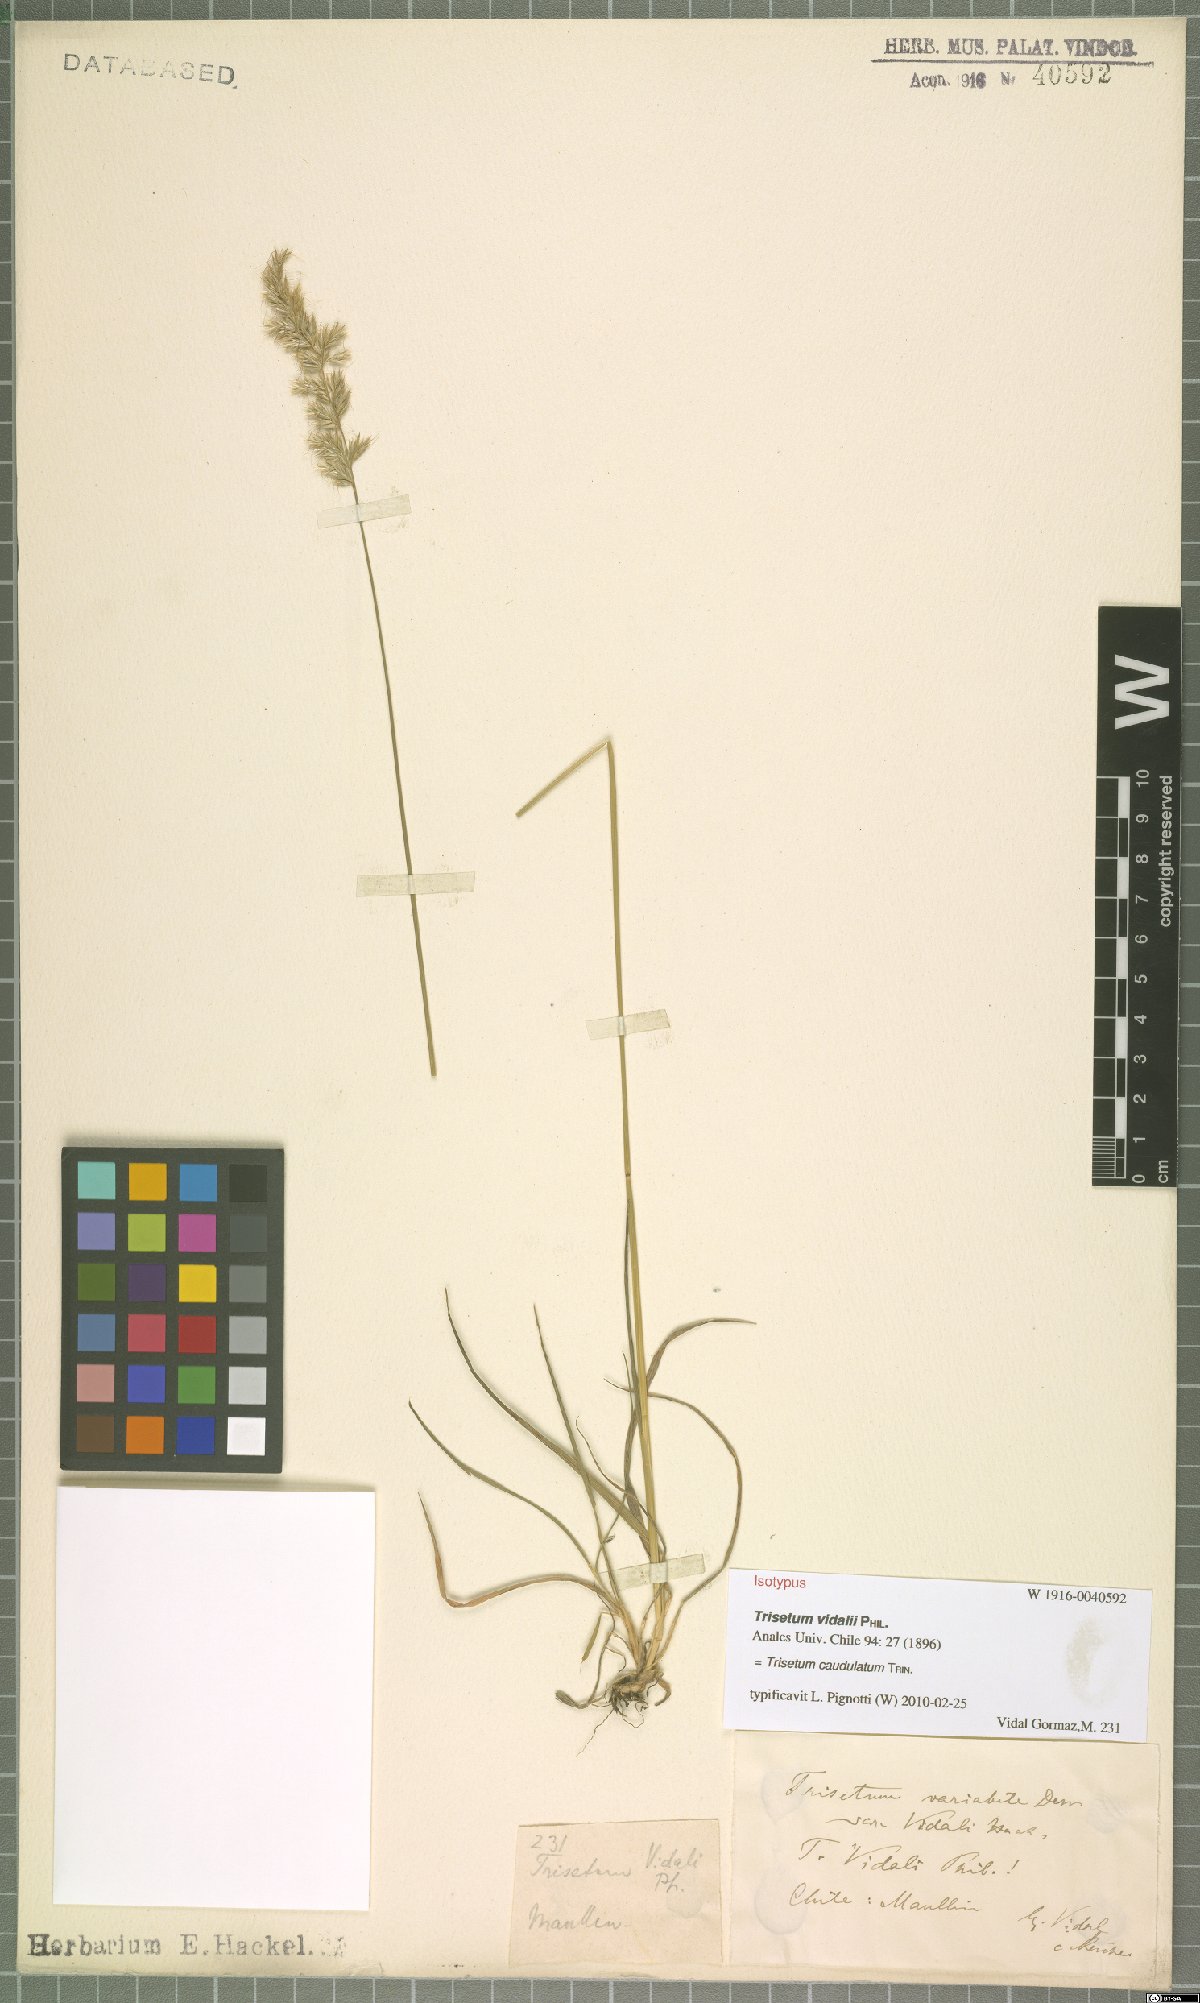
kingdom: Plantae
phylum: Tracheophyta
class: Liliopsida
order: Poales
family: Poaceae
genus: Trisetum
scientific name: Trisetum caudulatum
